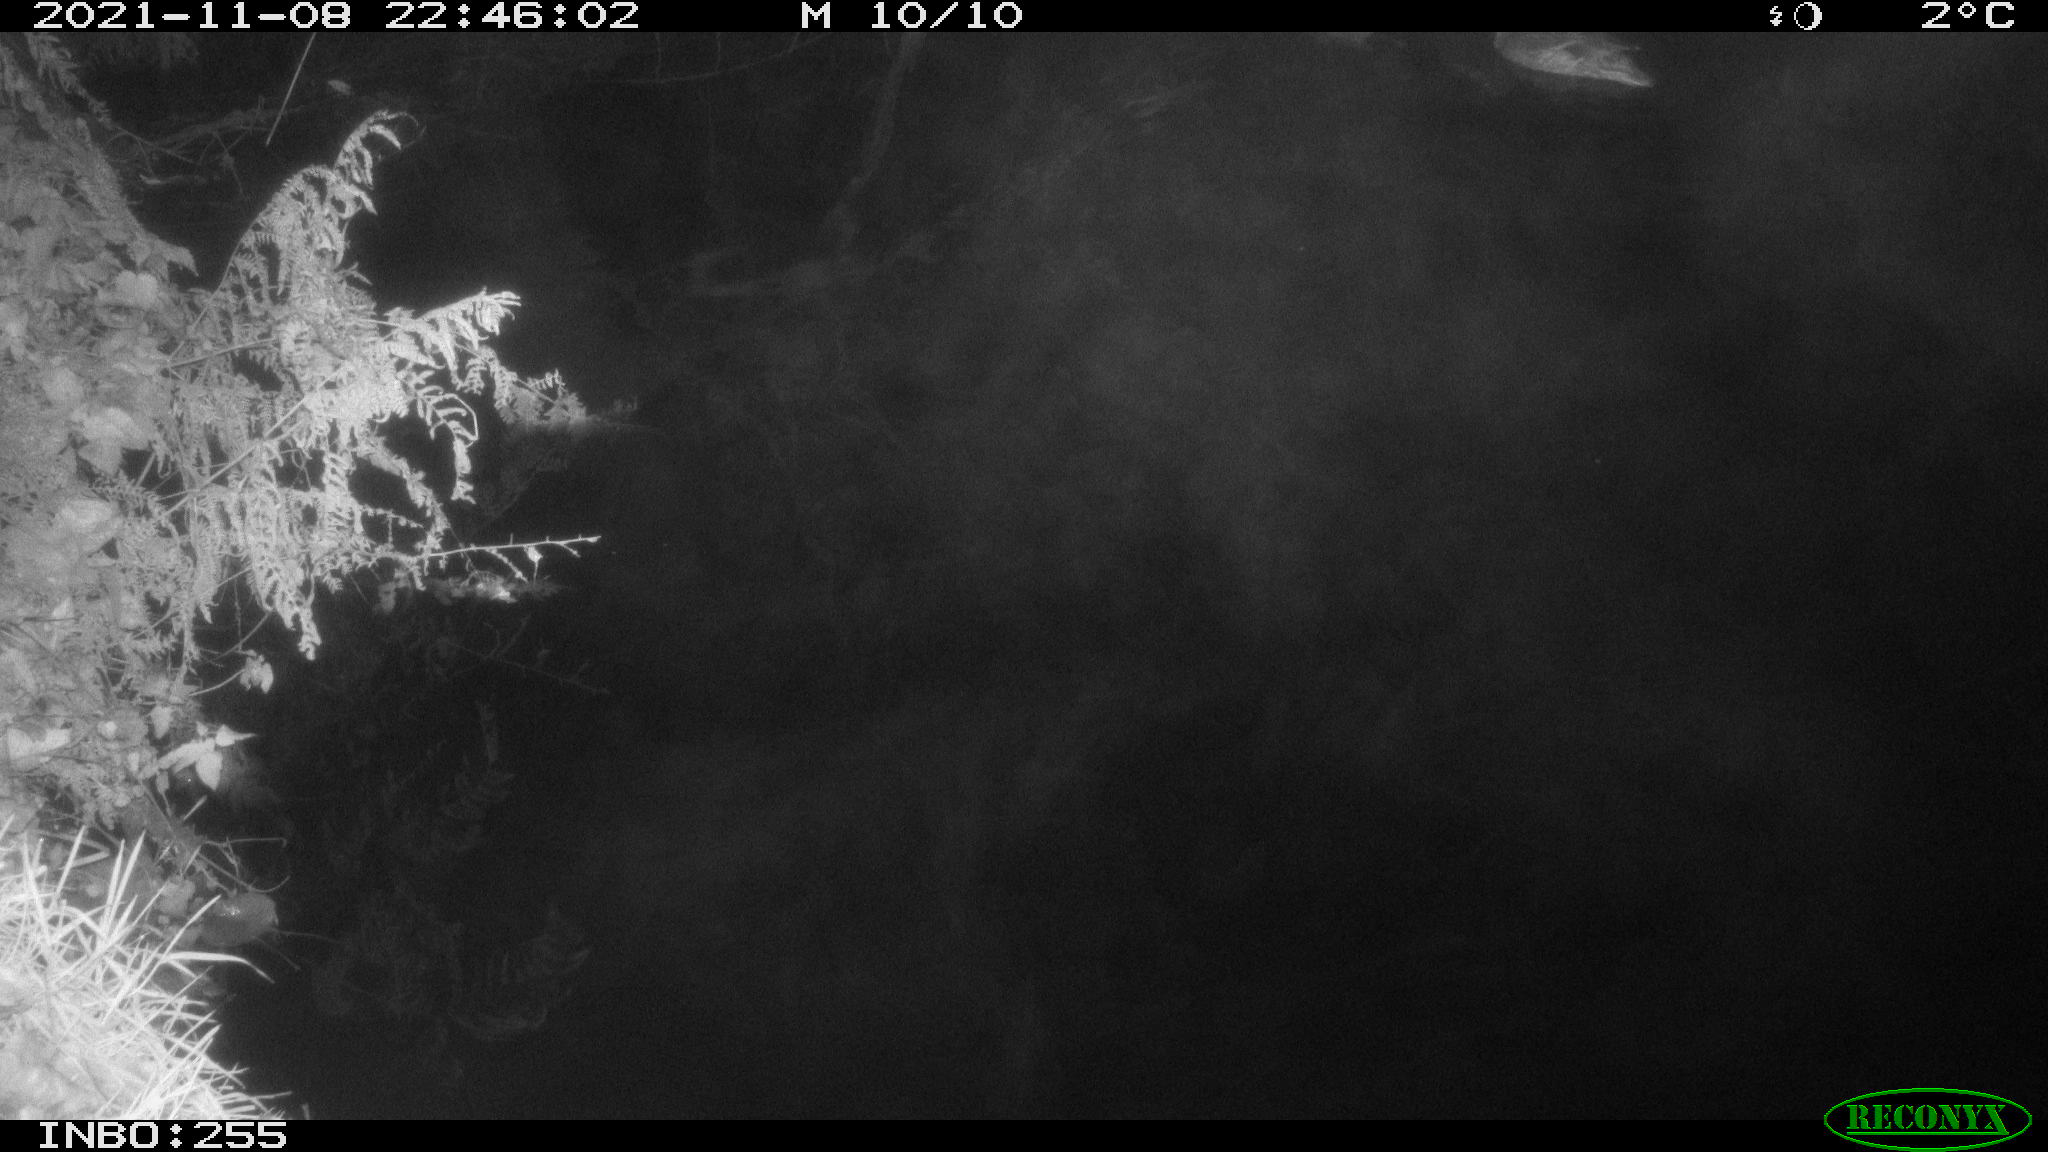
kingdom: Animalia
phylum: Chordata
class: Aves
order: Anseriformes
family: Anatidae
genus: Anas
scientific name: Anas platyrhynchos
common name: Mallard
